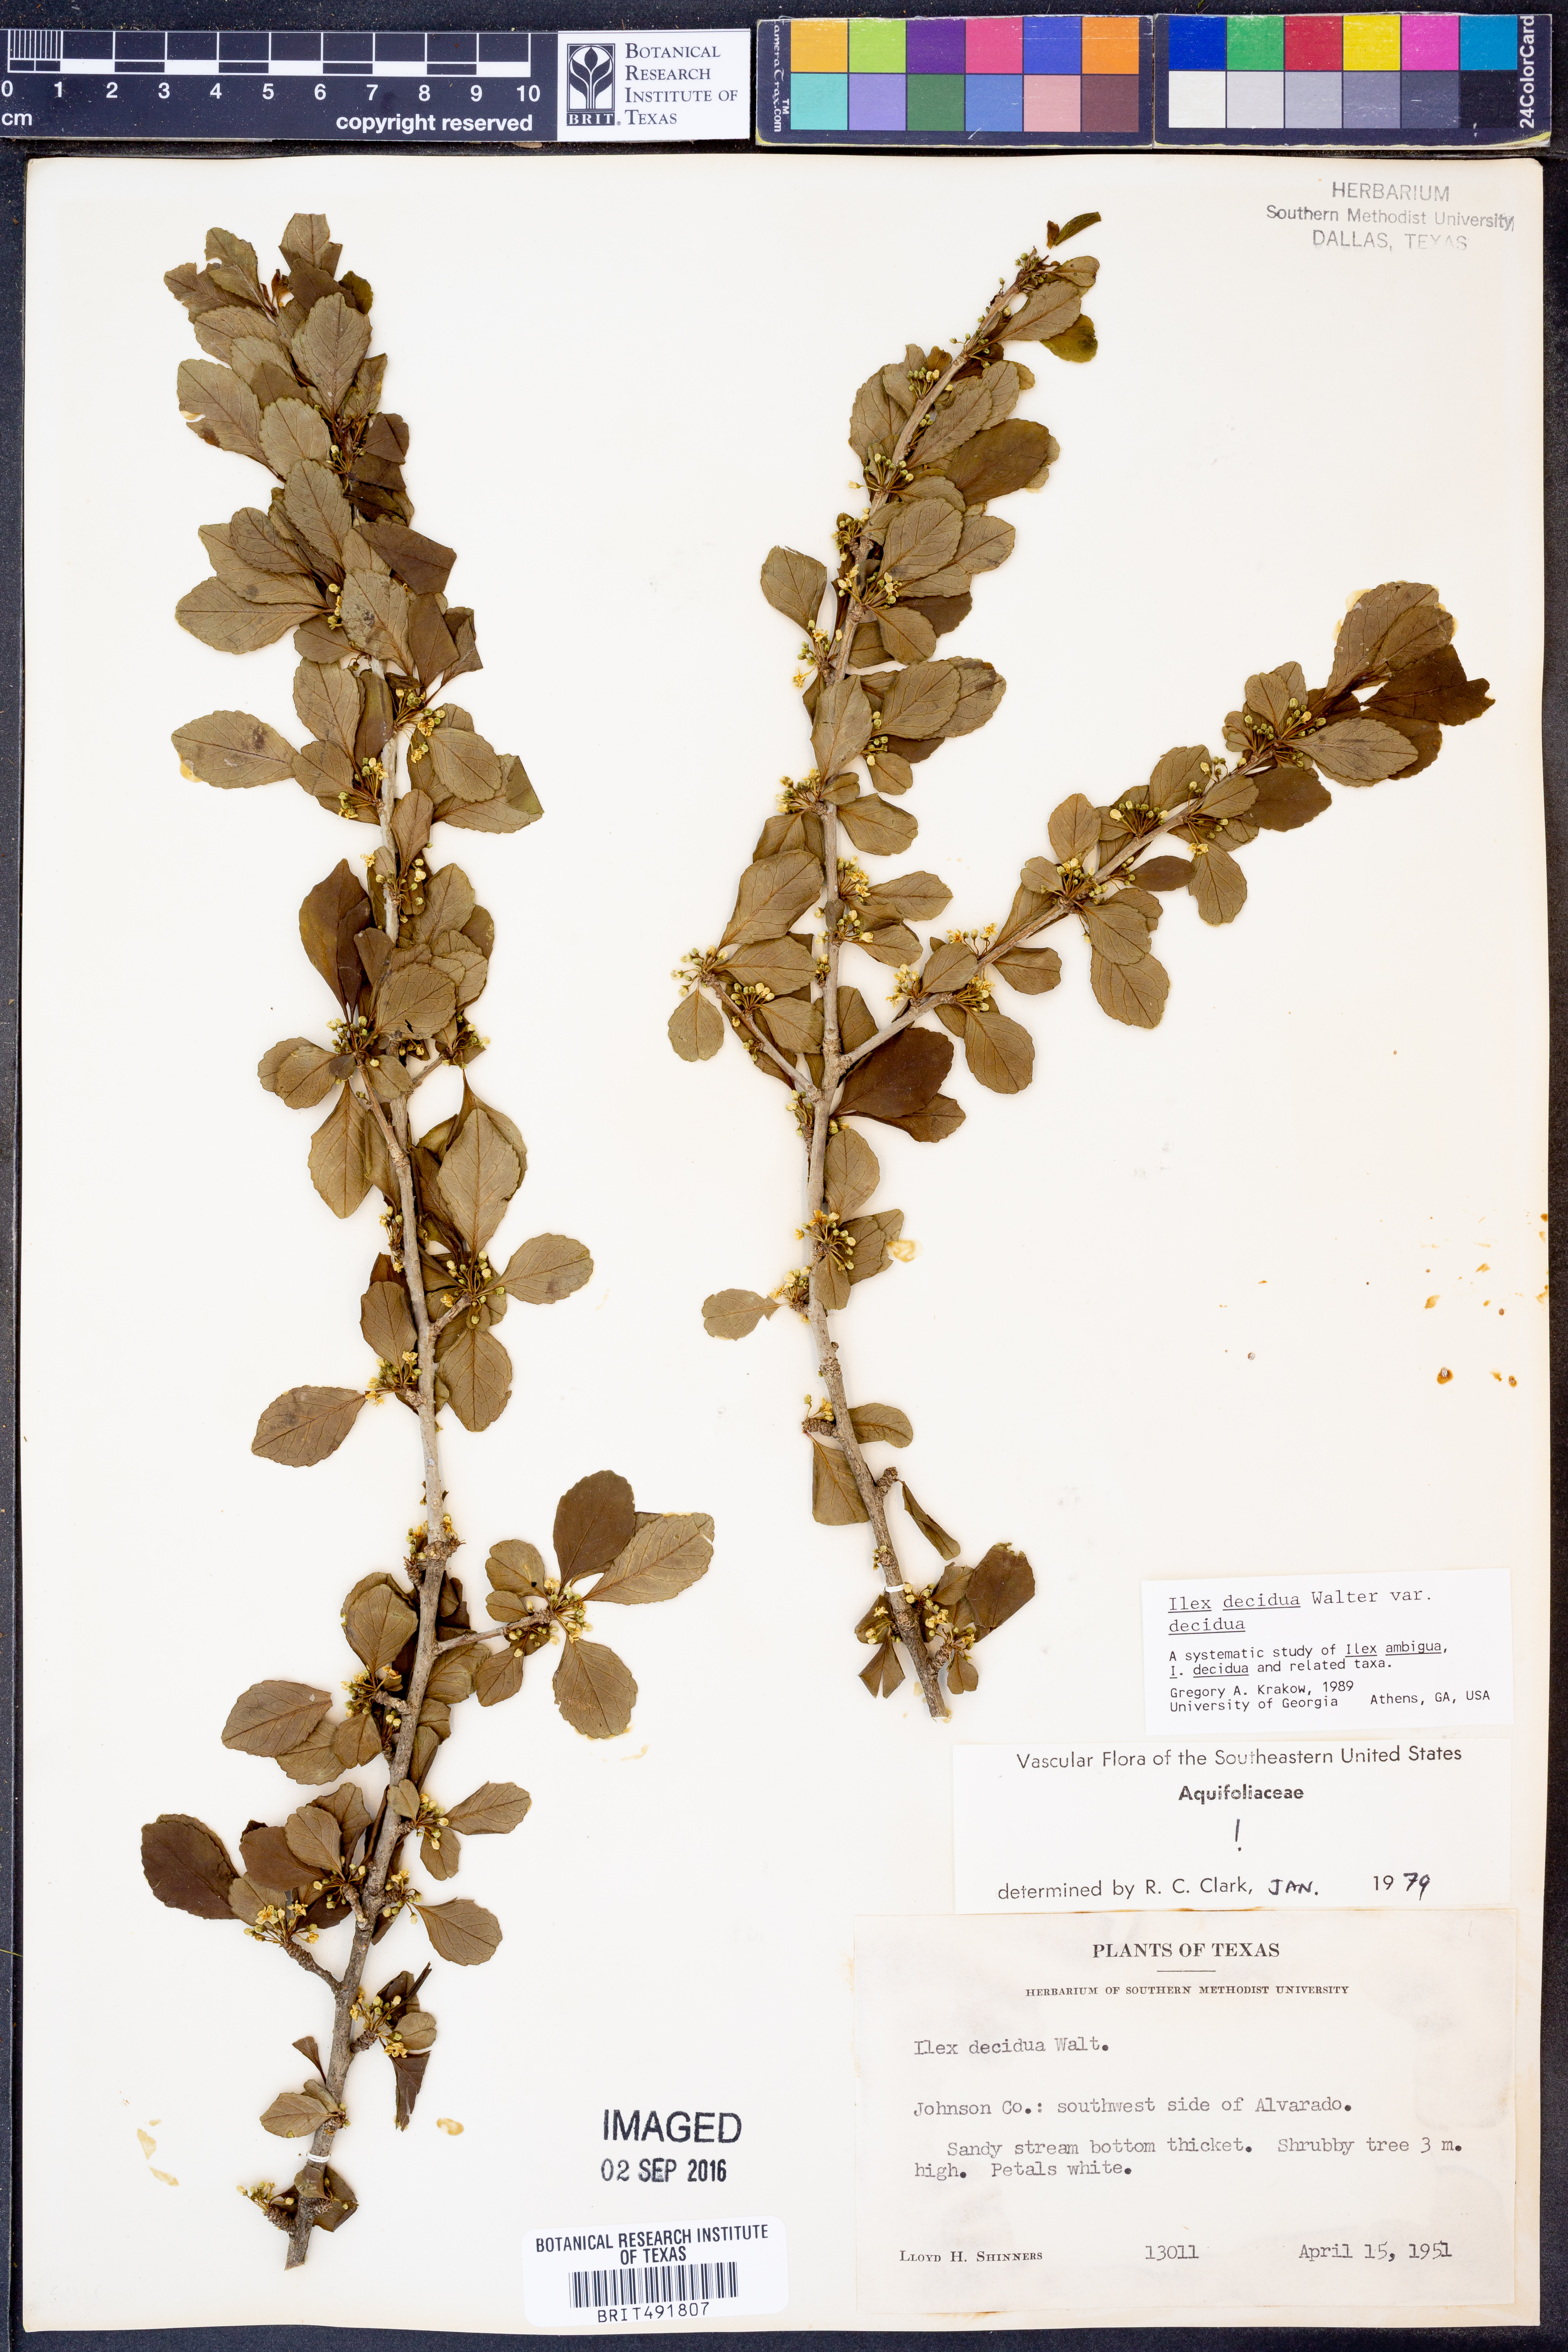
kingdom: Plantae
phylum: Tracheophyta
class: Magnoliopsida
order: Aquifoliales
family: Aquifoliaceae
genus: Ilex
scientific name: Ilex decidua
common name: Possum-haw
